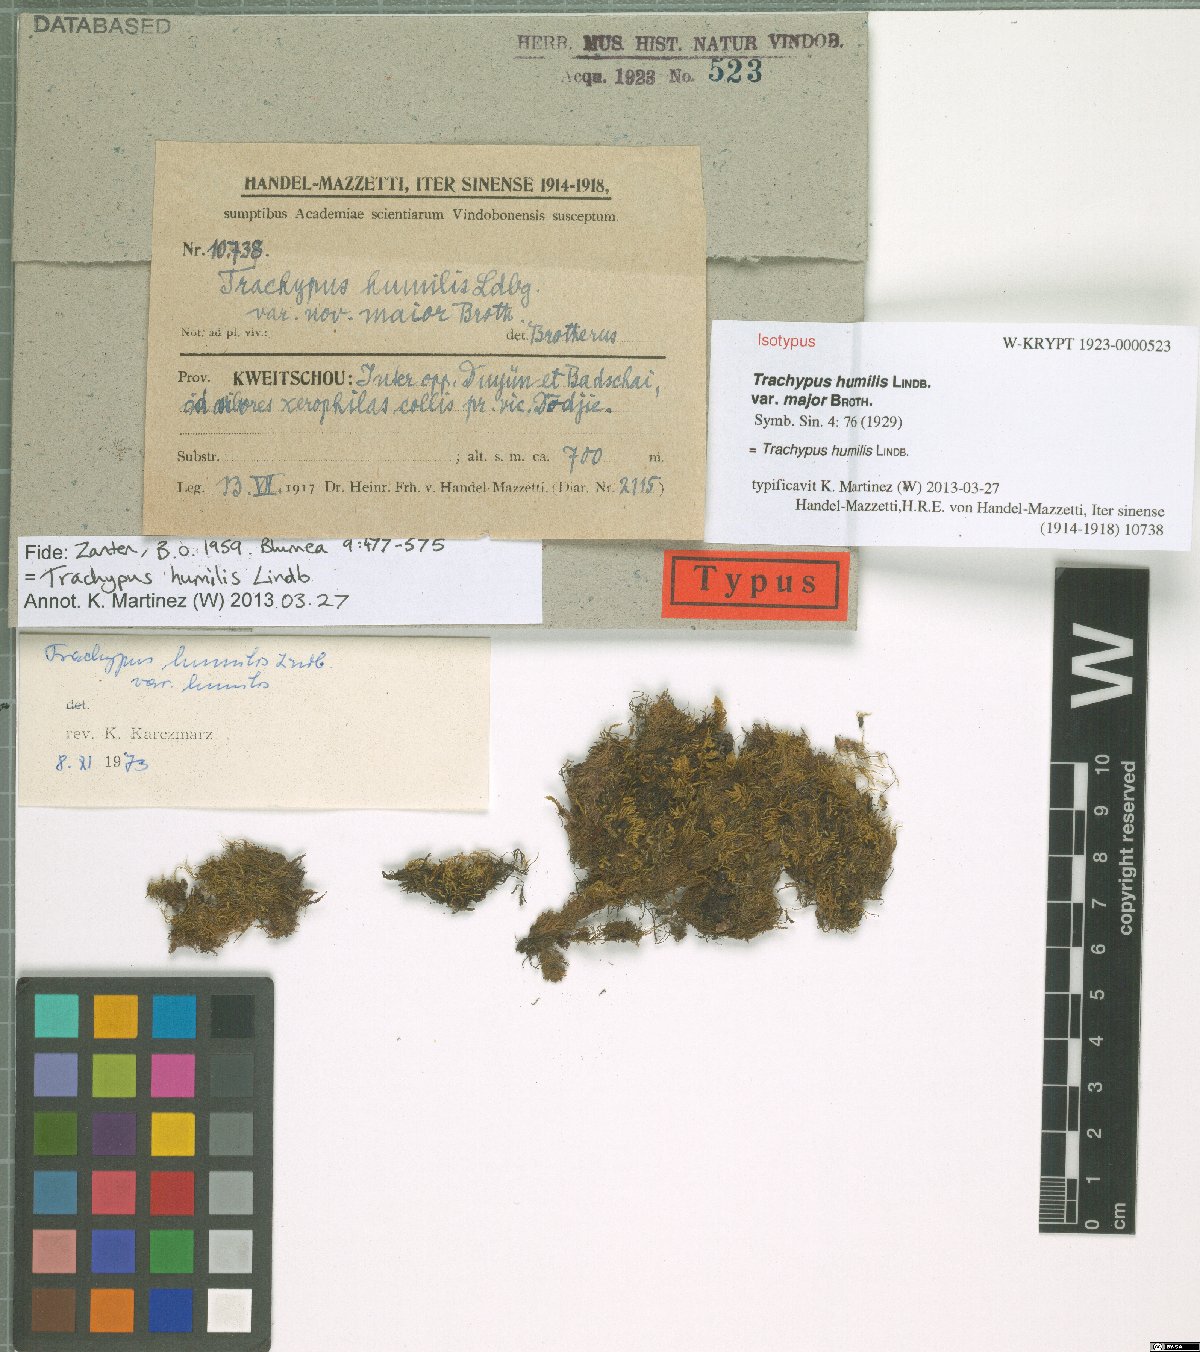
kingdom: Plantae
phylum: Bryophyta
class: Bryopsida
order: Hypnales
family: Meteoriaceae
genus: Trachypus
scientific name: Trachypus humilis
